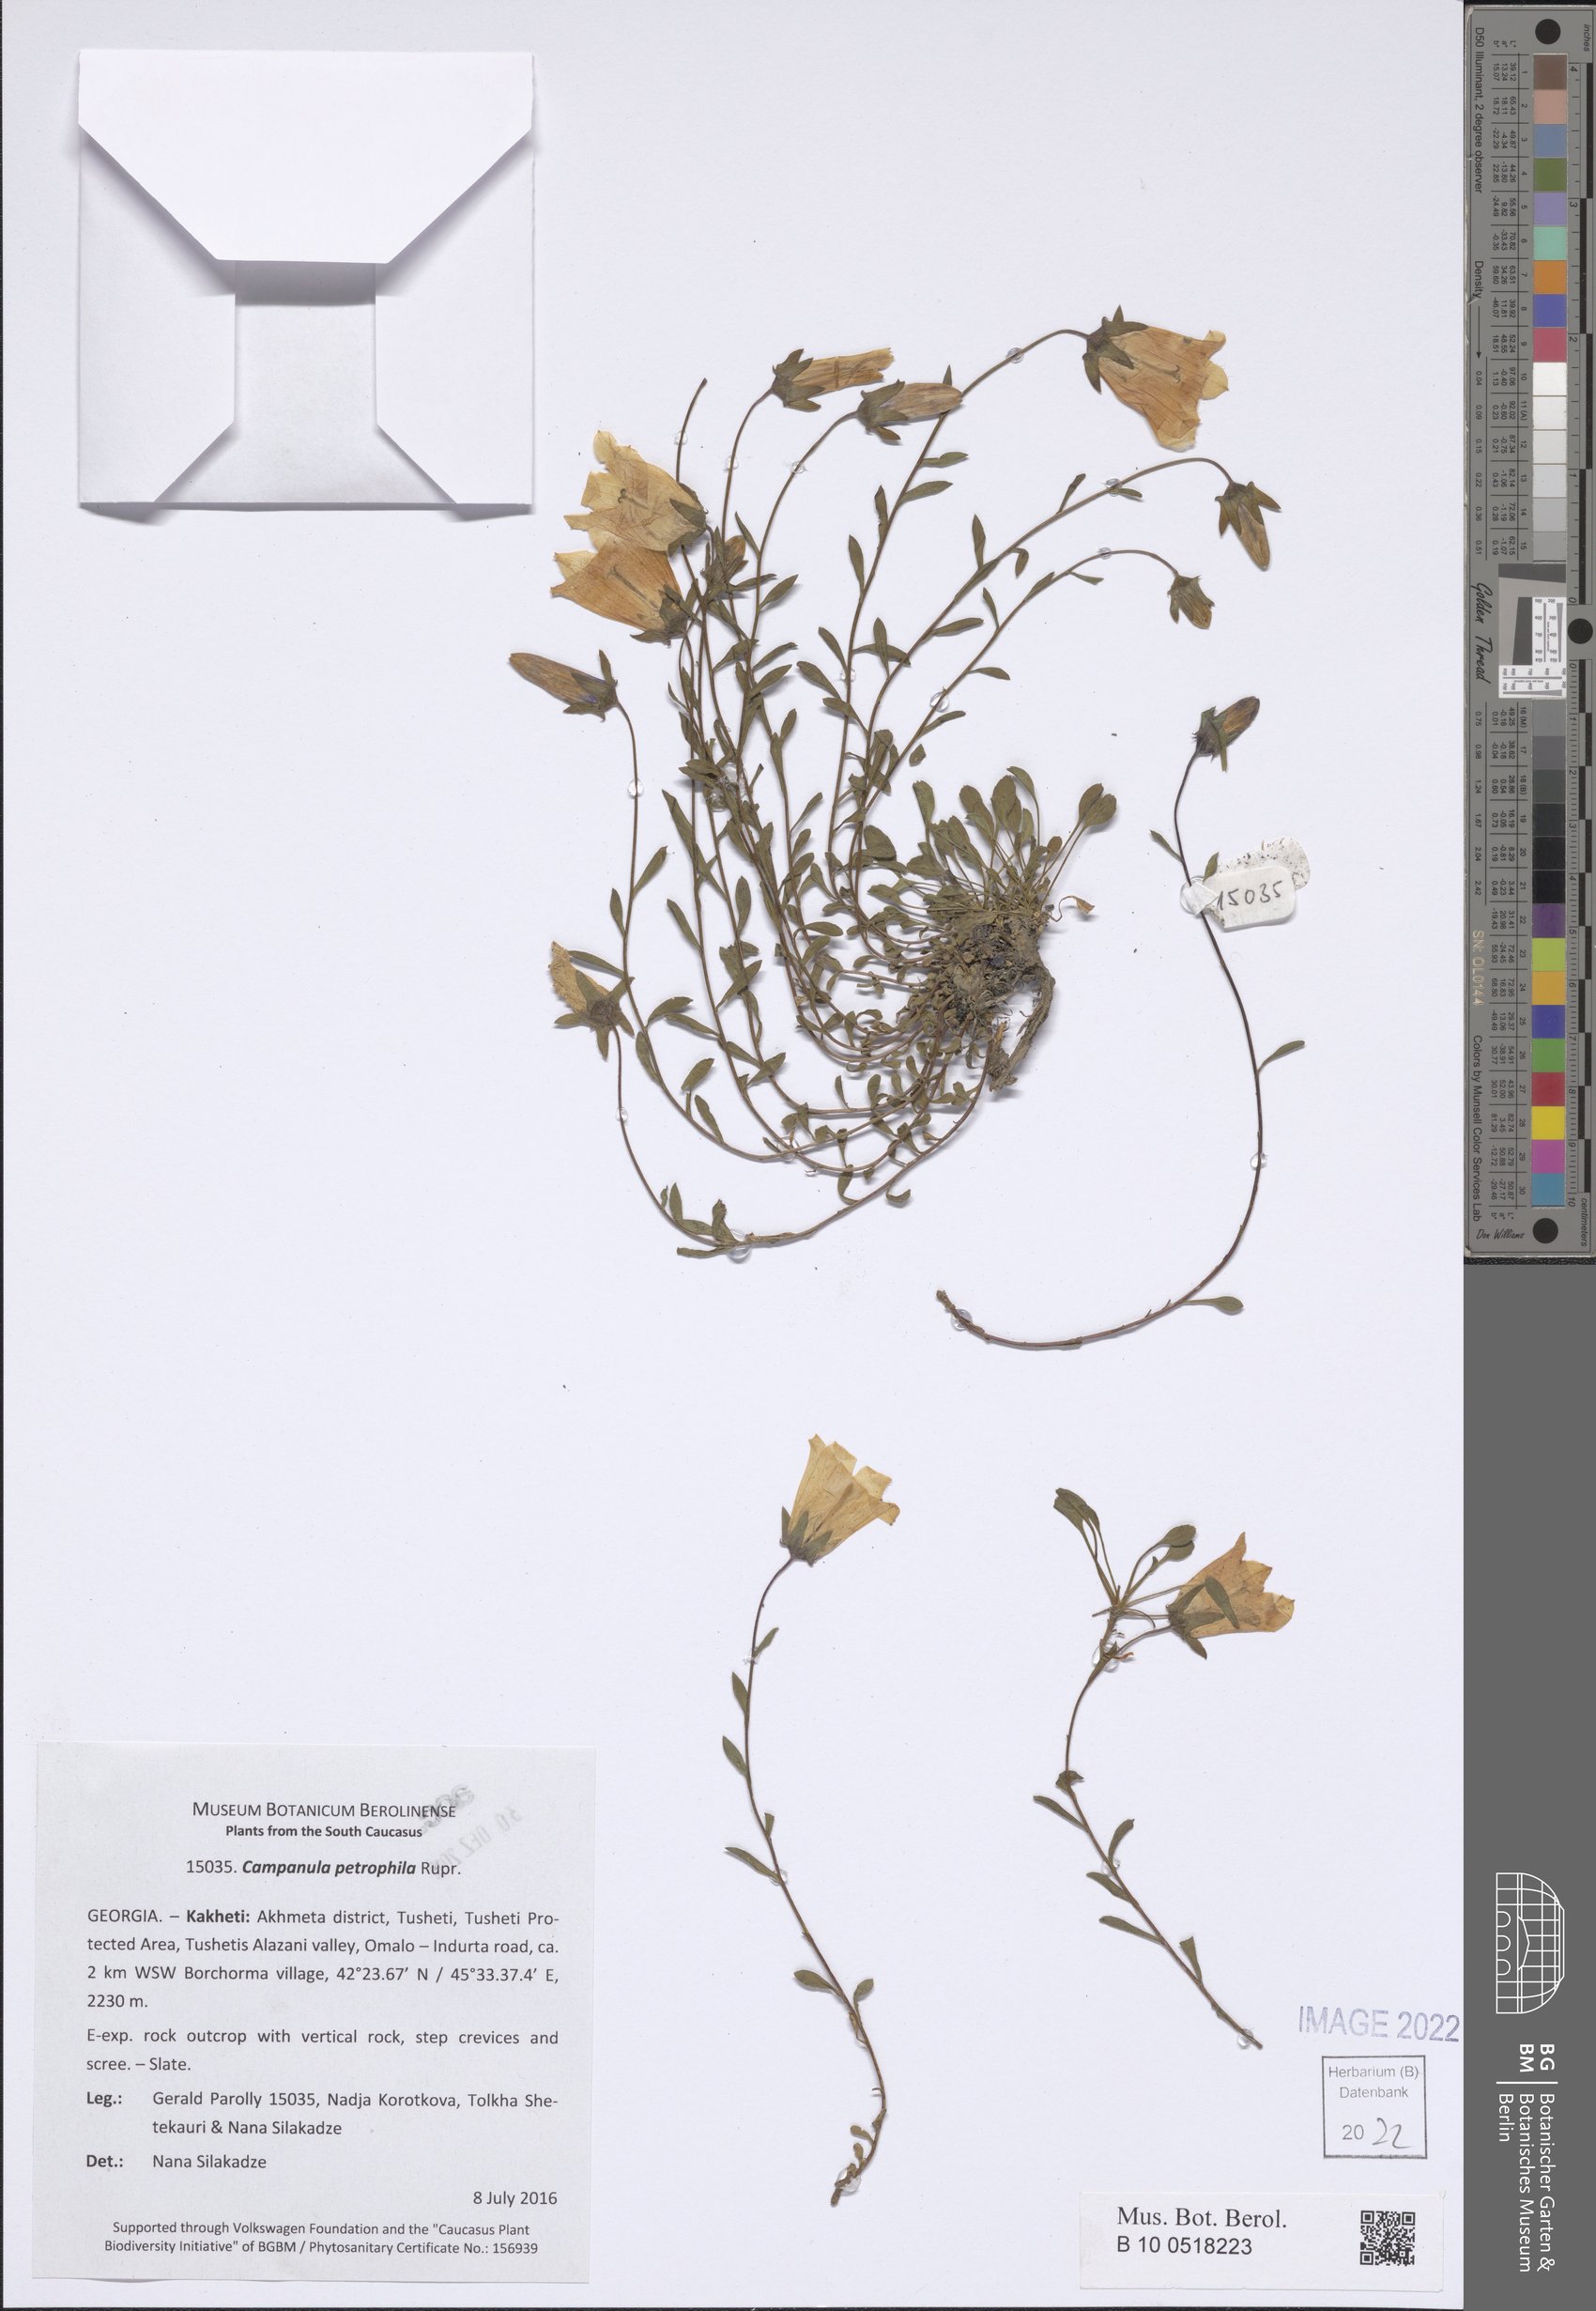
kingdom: Plantae
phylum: Tracheophyta
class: Magnoliopsida
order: Asterales
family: Campanulaceae
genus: Campanula
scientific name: Campanula petrophila
